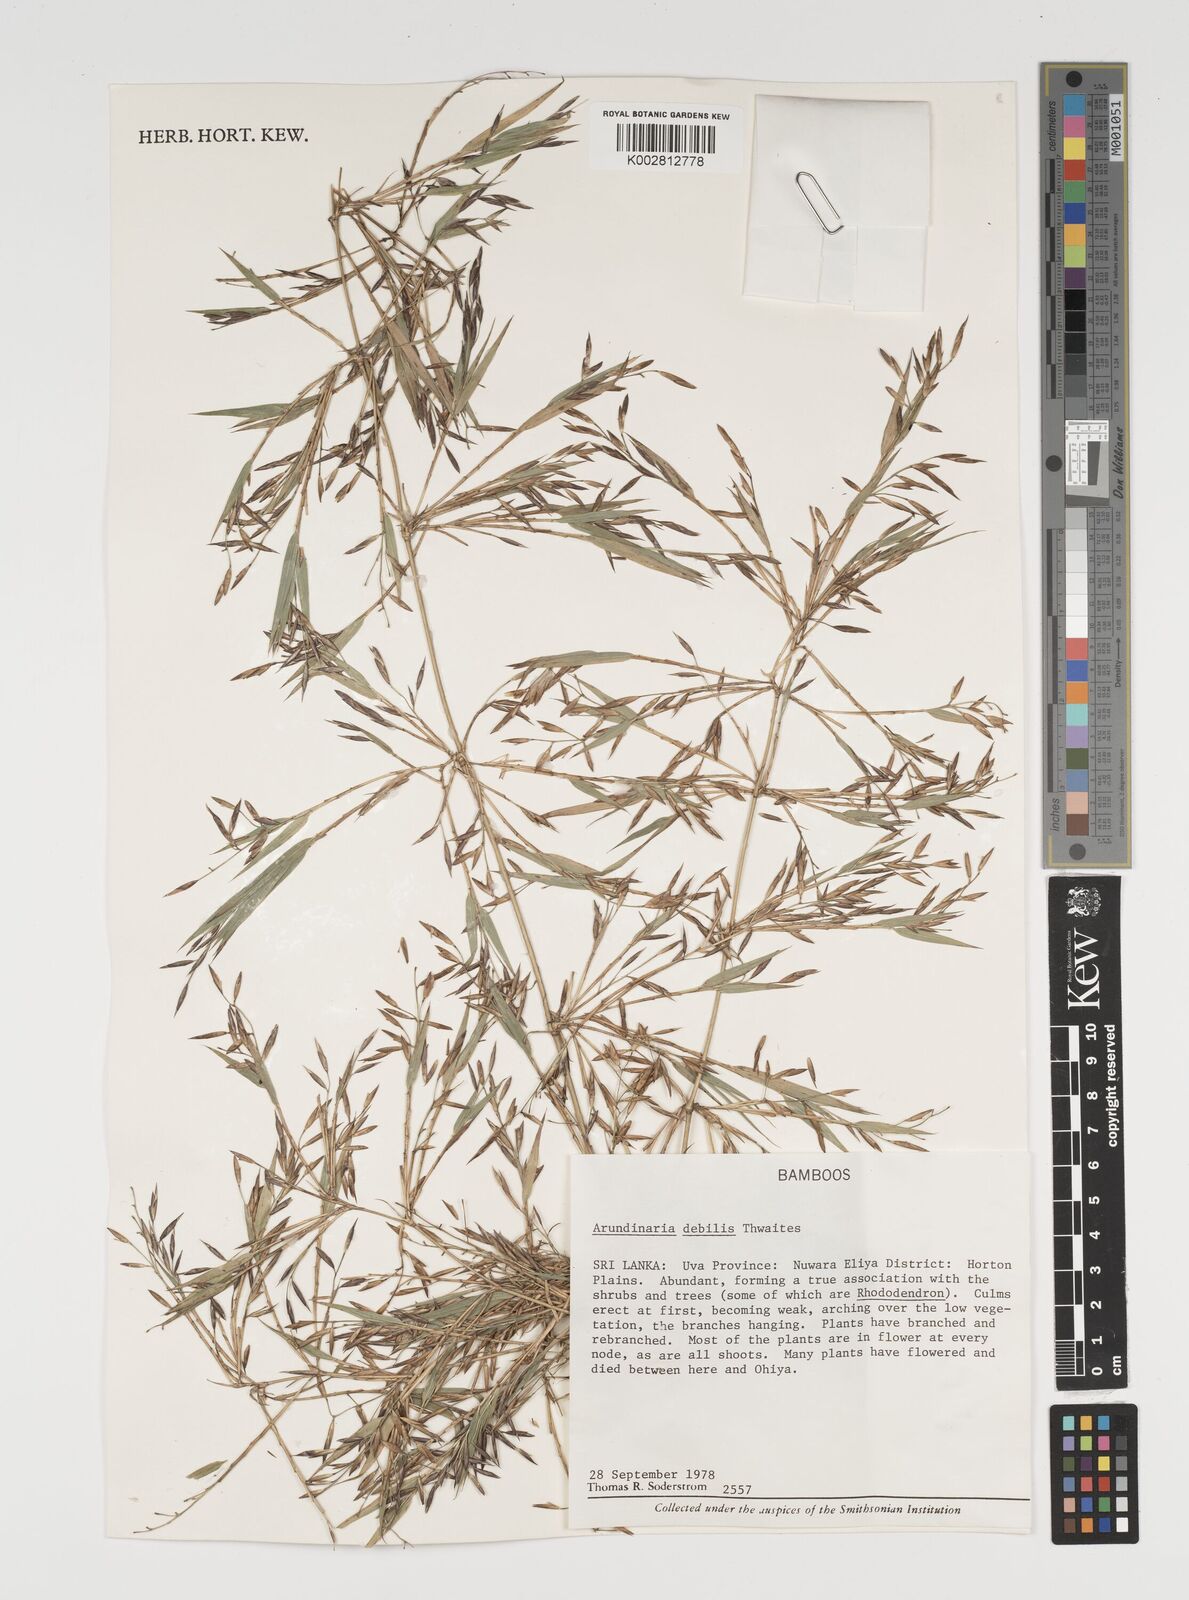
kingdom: Plantae
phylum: Tracheophyta
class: Liliopsida
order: Poales
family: Poaceae
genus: Kuruna
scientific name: Kuruna debilis
